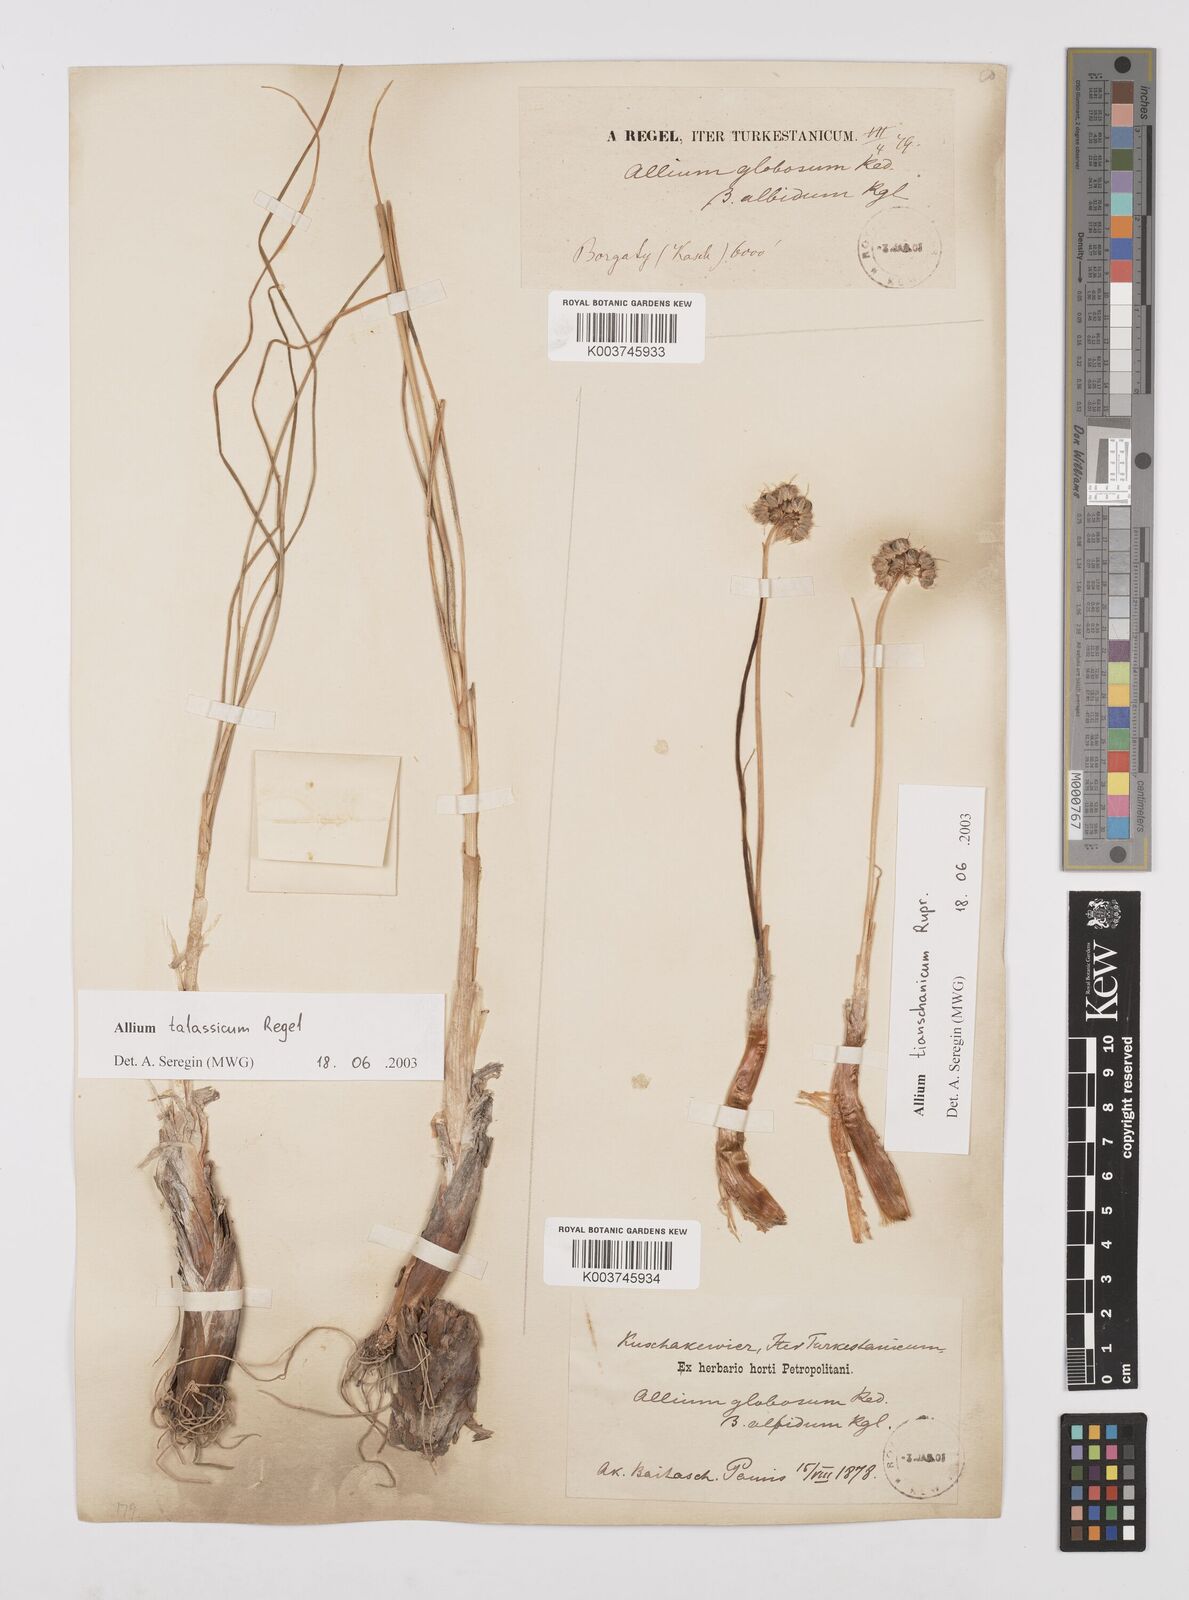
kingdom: Plantae
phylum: Tracheophyta
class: Liliopsida
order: Asparagales
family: Amaryllidaceae
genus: Allium
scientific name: Allium talassicum
